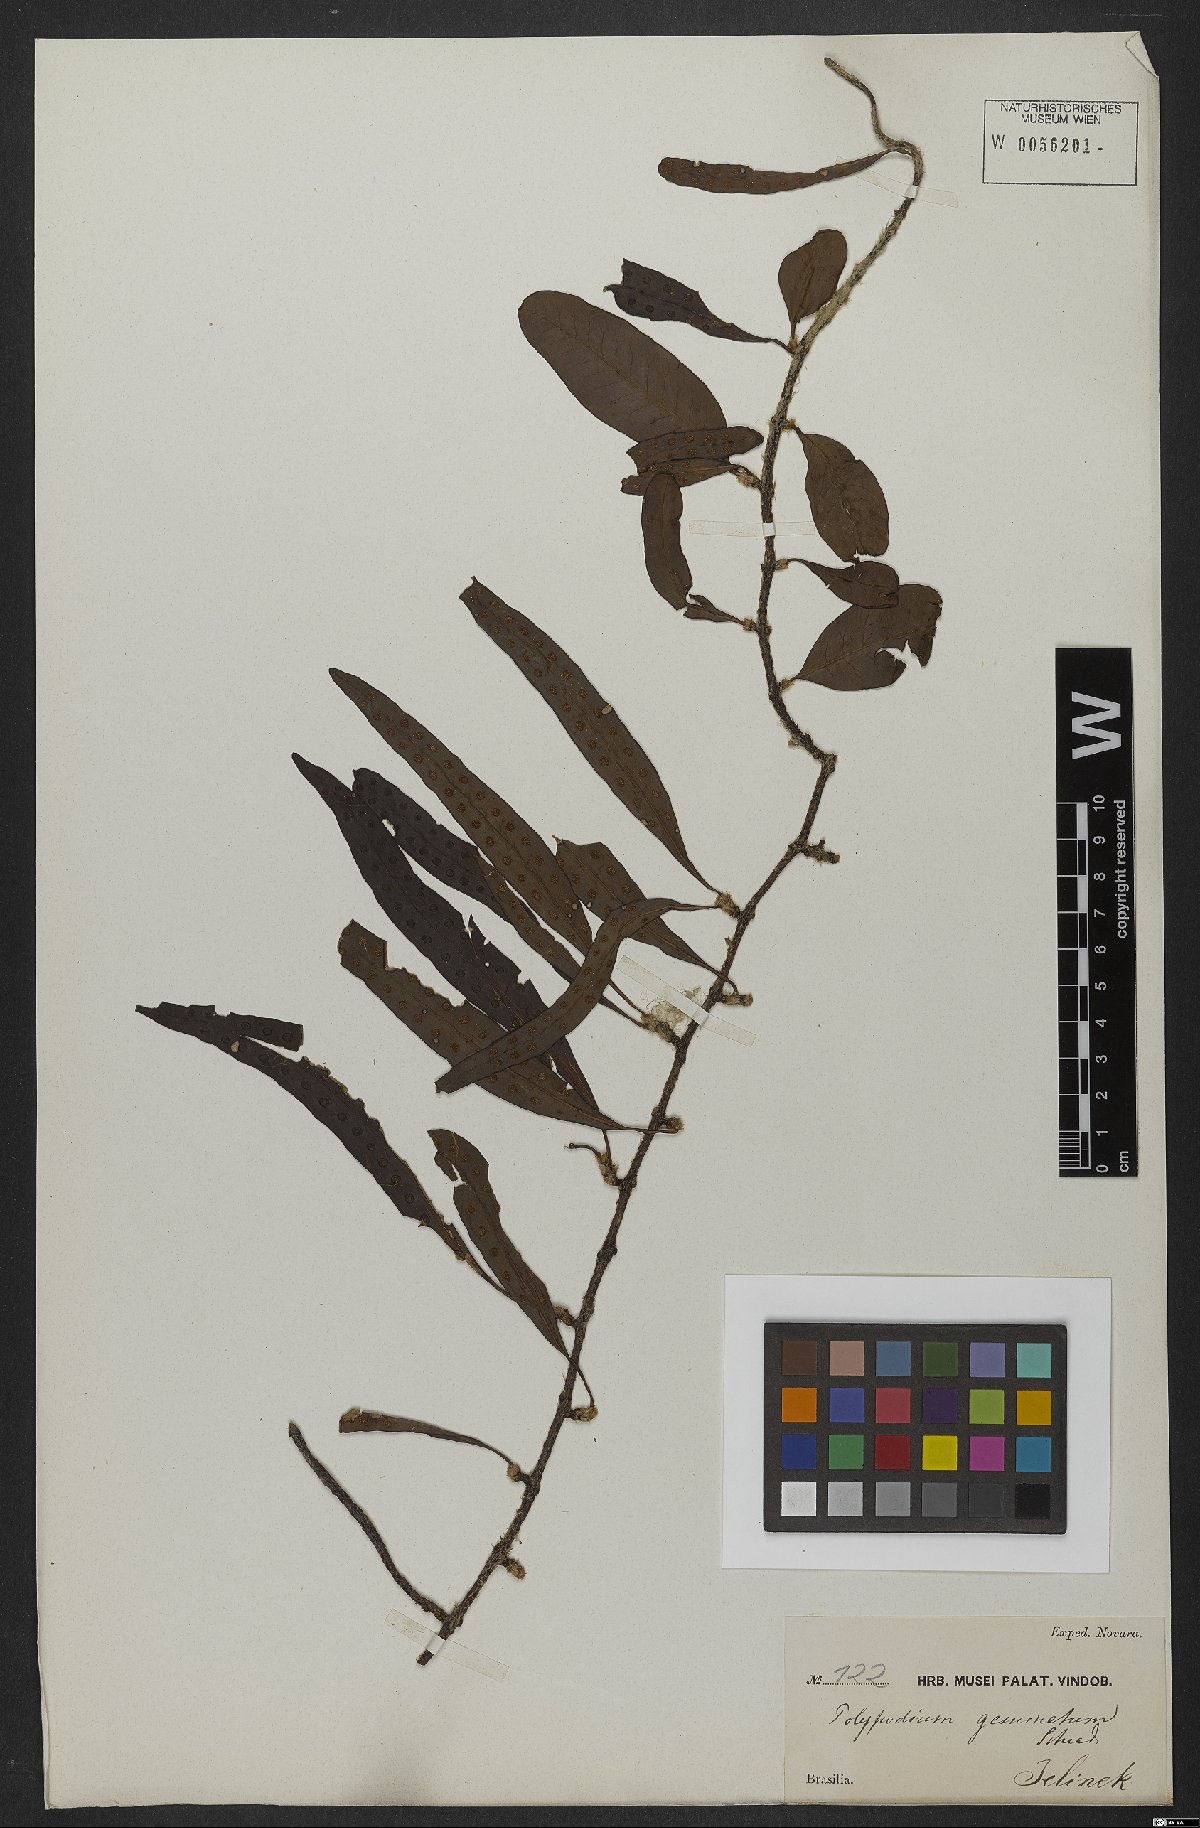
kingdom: Plantae
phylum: Tracheophyta
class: Polypodiopsida
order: Polypodiales
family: Polypodiaceae
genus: Microgramma
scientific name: Microgramma geminata
